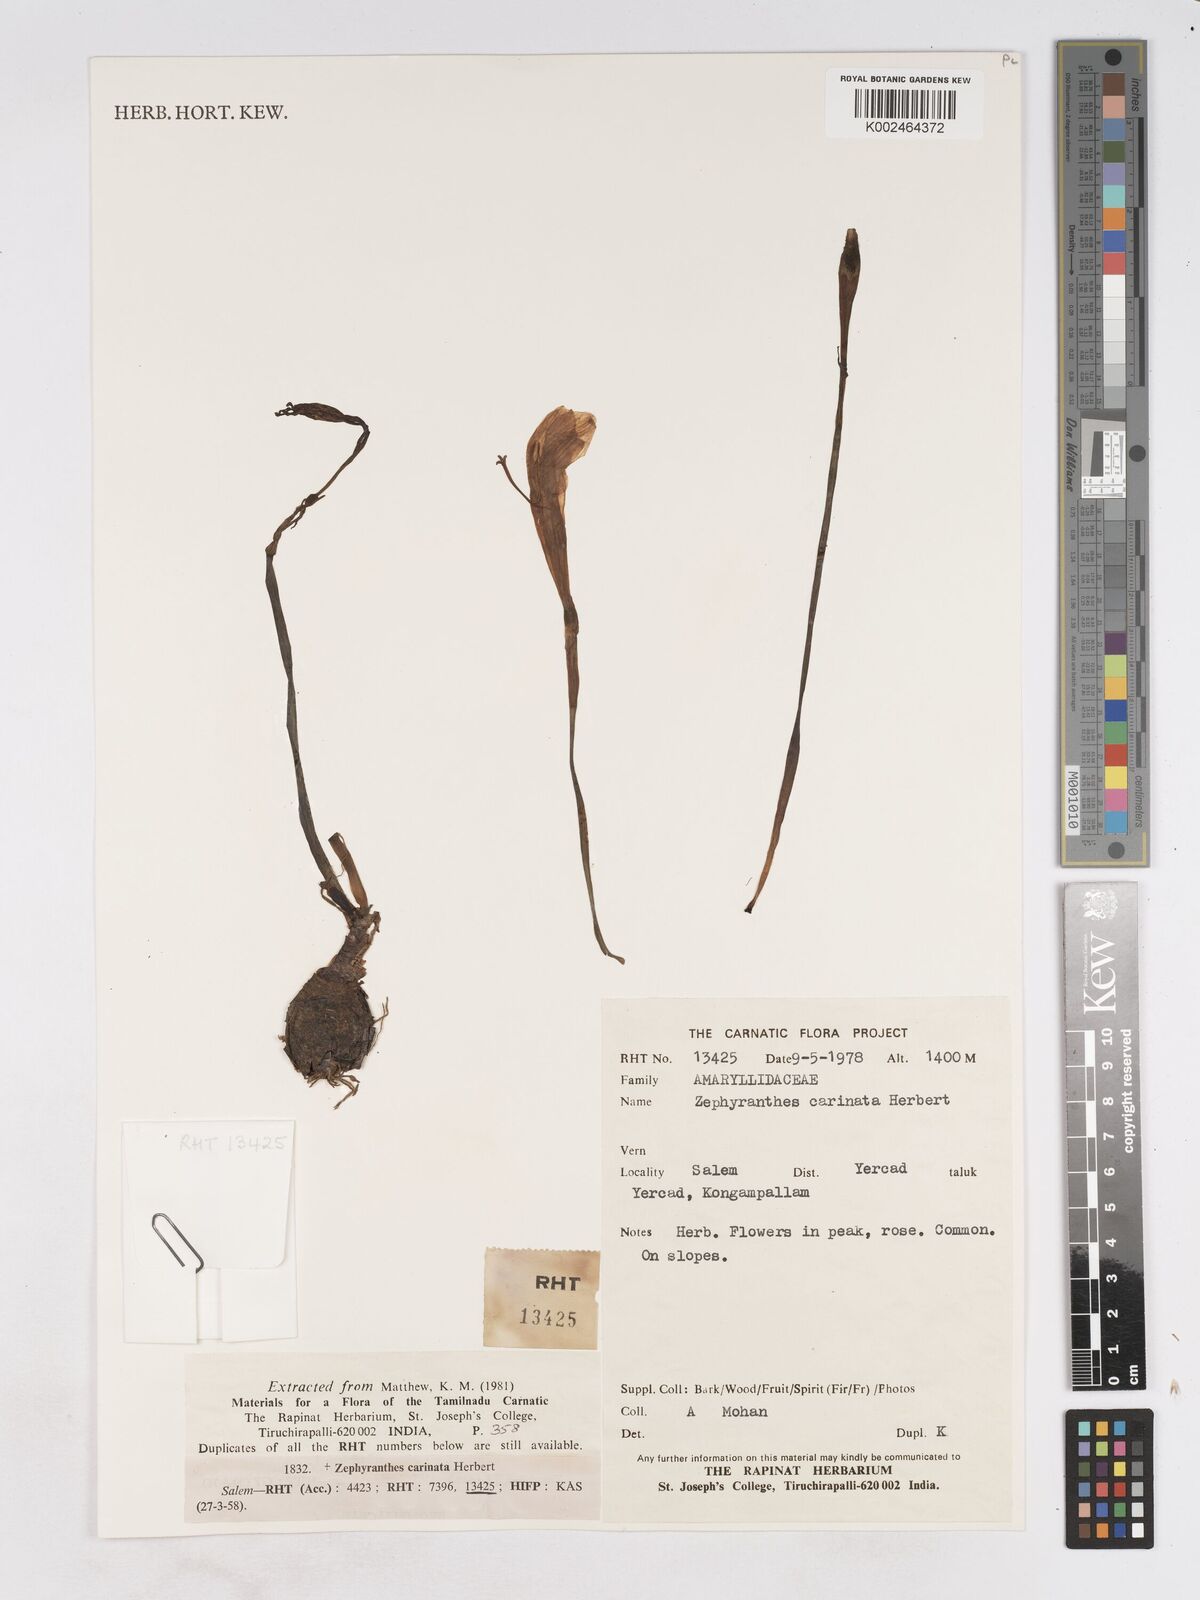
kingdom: Plantae
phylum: Tracheophyta
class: Liliopsida
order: Asparagales
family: Amaryllidaceae
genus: Zephyranthes
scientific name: Zephyranthes minuta
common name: Pink rain lily
